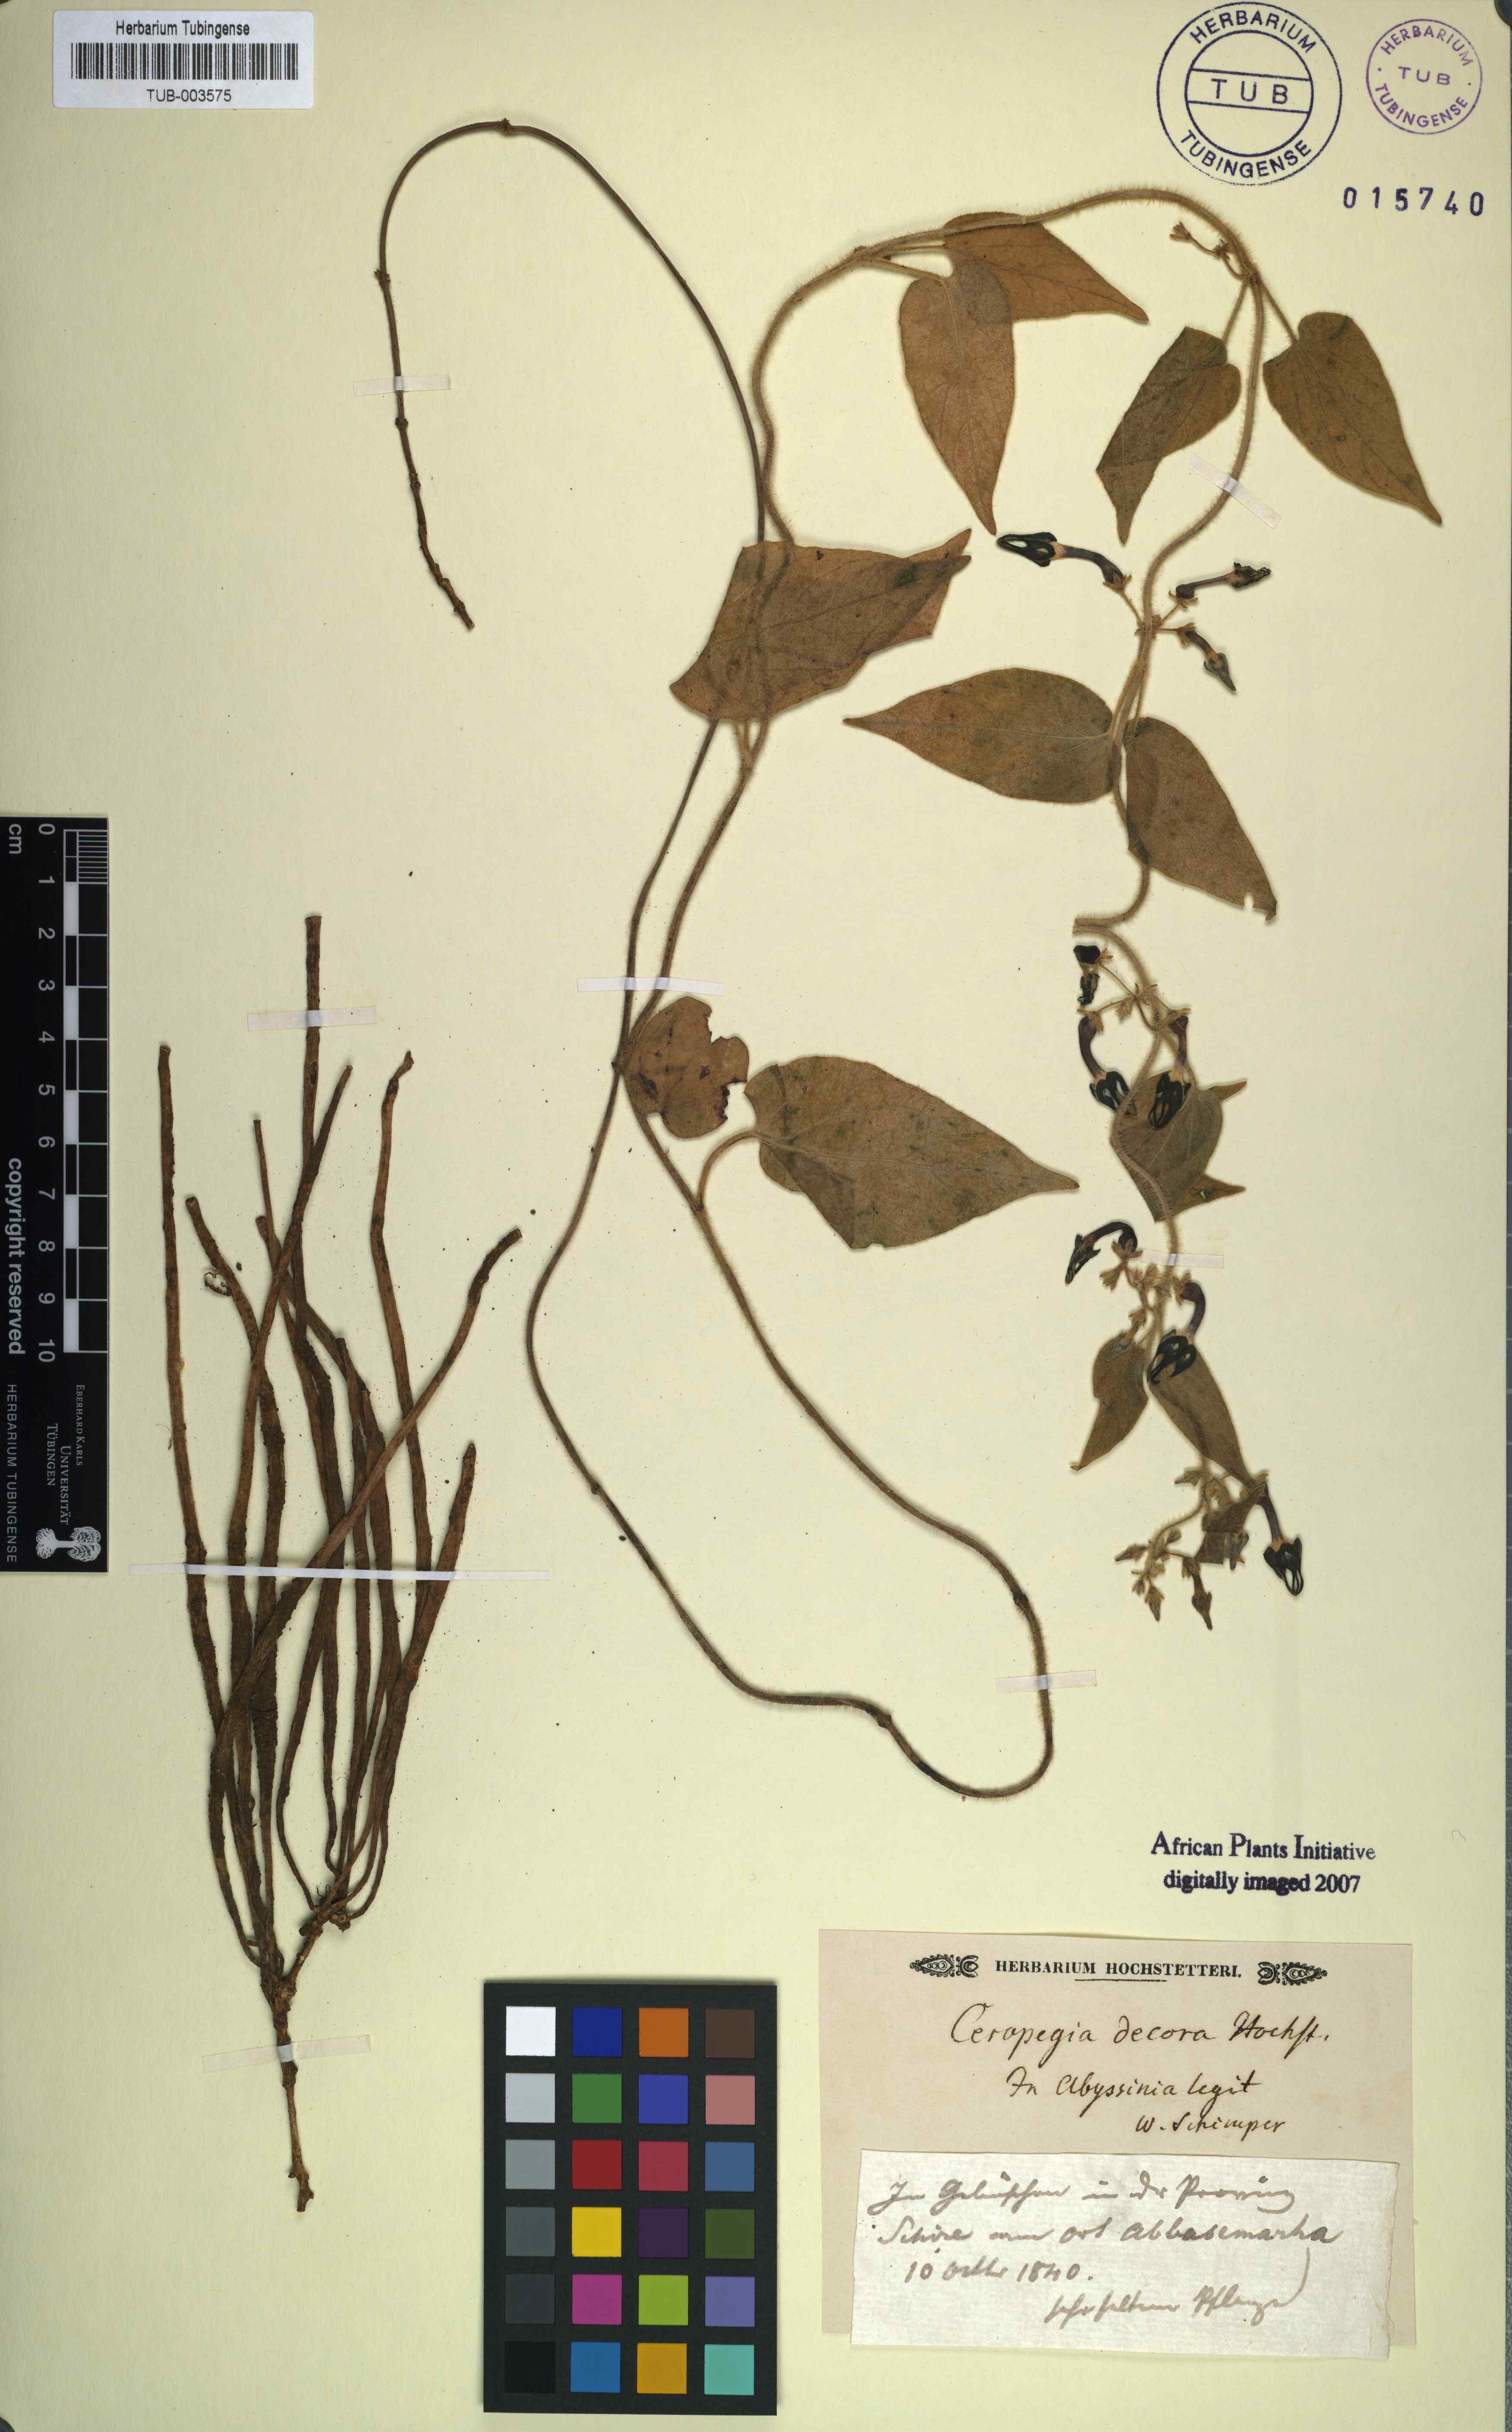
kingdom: Plantae
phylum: Tracheophyta
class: Magnoliopsida
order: Gentianales
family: Apocynaceae
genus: Ceropegia
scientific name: Ceropegia
